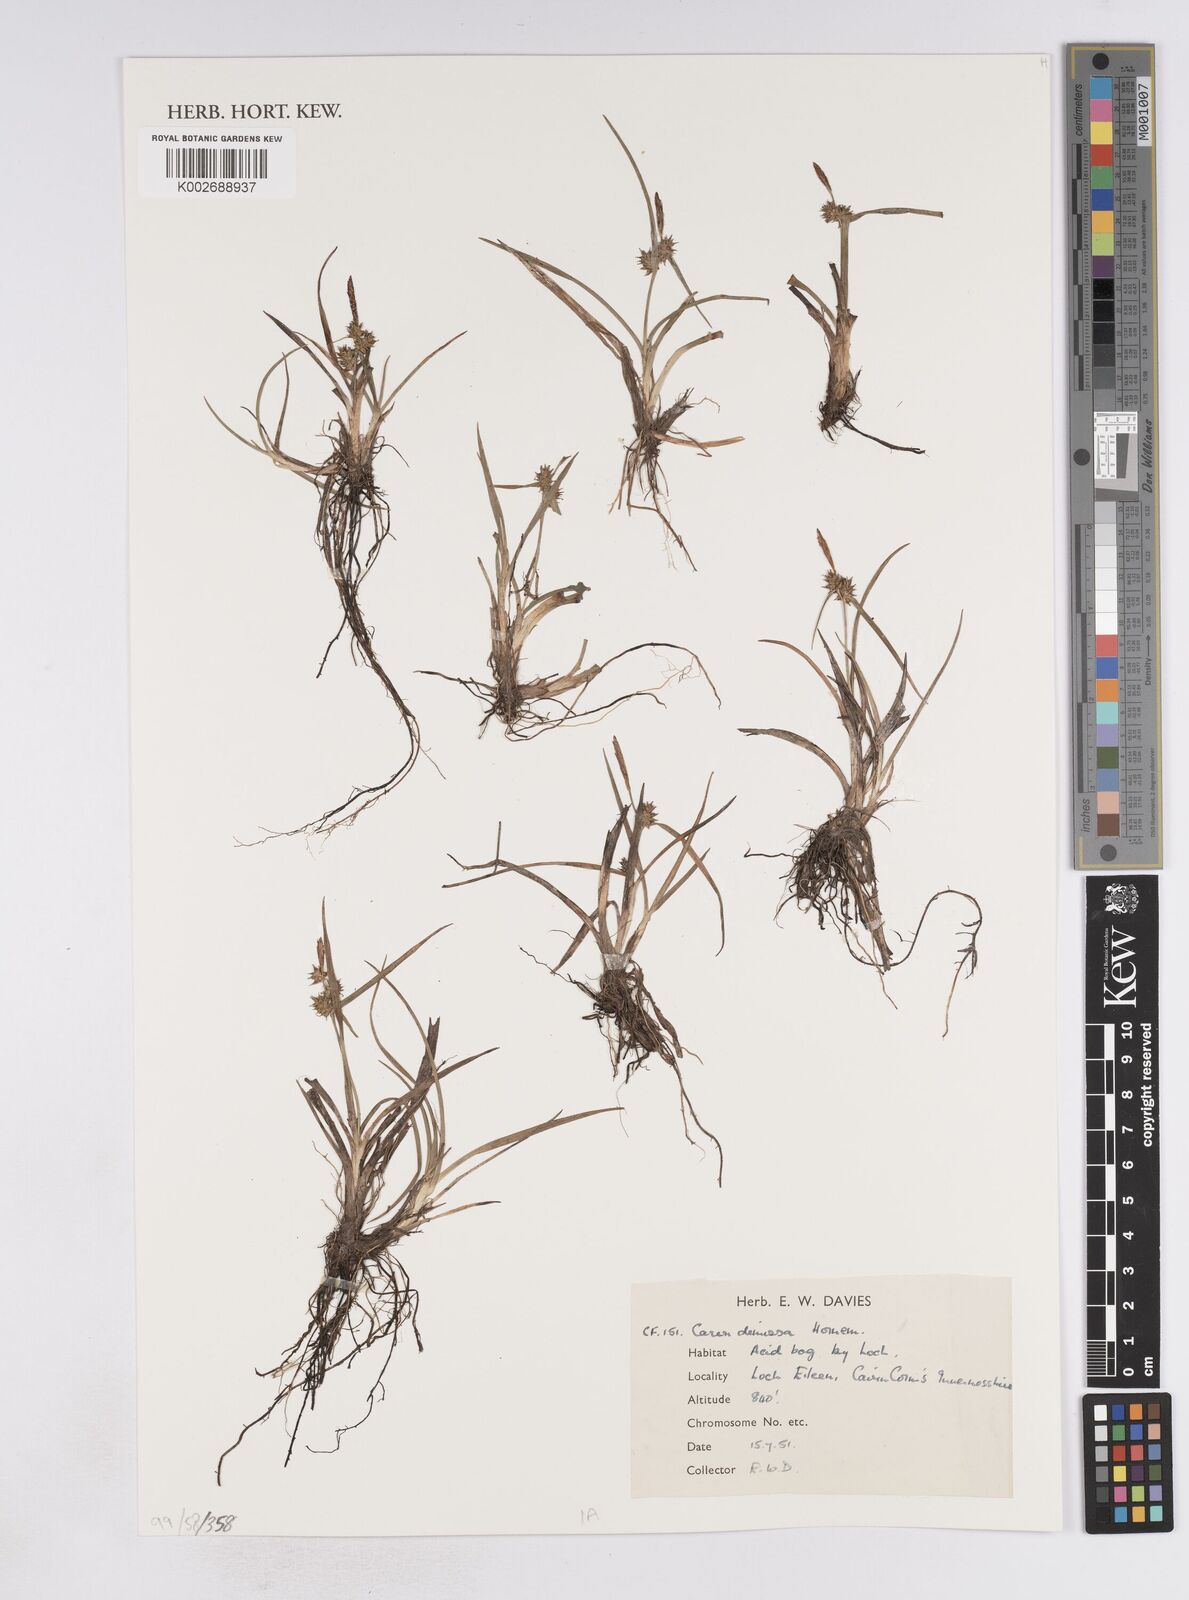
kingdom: Plantae
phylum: Tracheophyta
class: Liliopsida
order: Poales
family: Cyperaceae
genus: Carex
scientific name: Carex demissa
